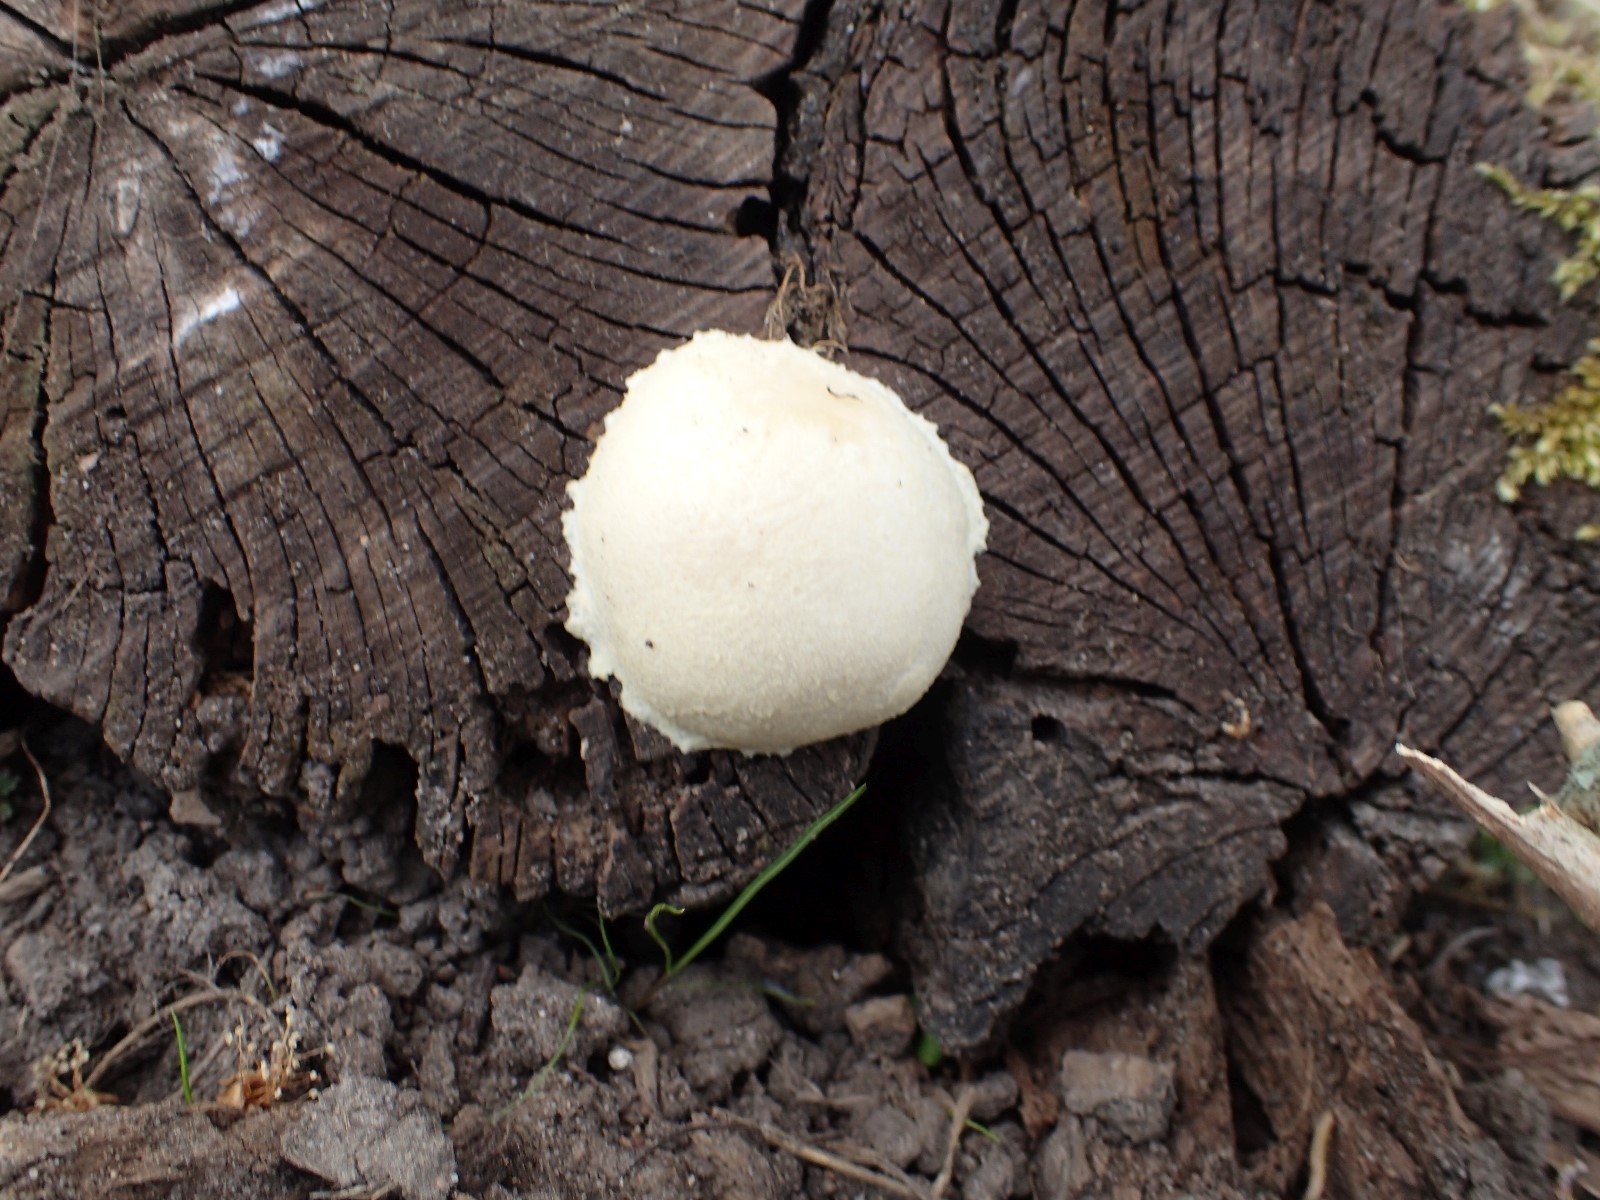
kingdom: Protozoa
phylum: Mycetozoa
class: Myxomycetes
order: Cribrariales
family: Tubiferaceae
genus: Reticularia
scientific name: Reticularia lycoperdon
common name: skinnende støvpude
